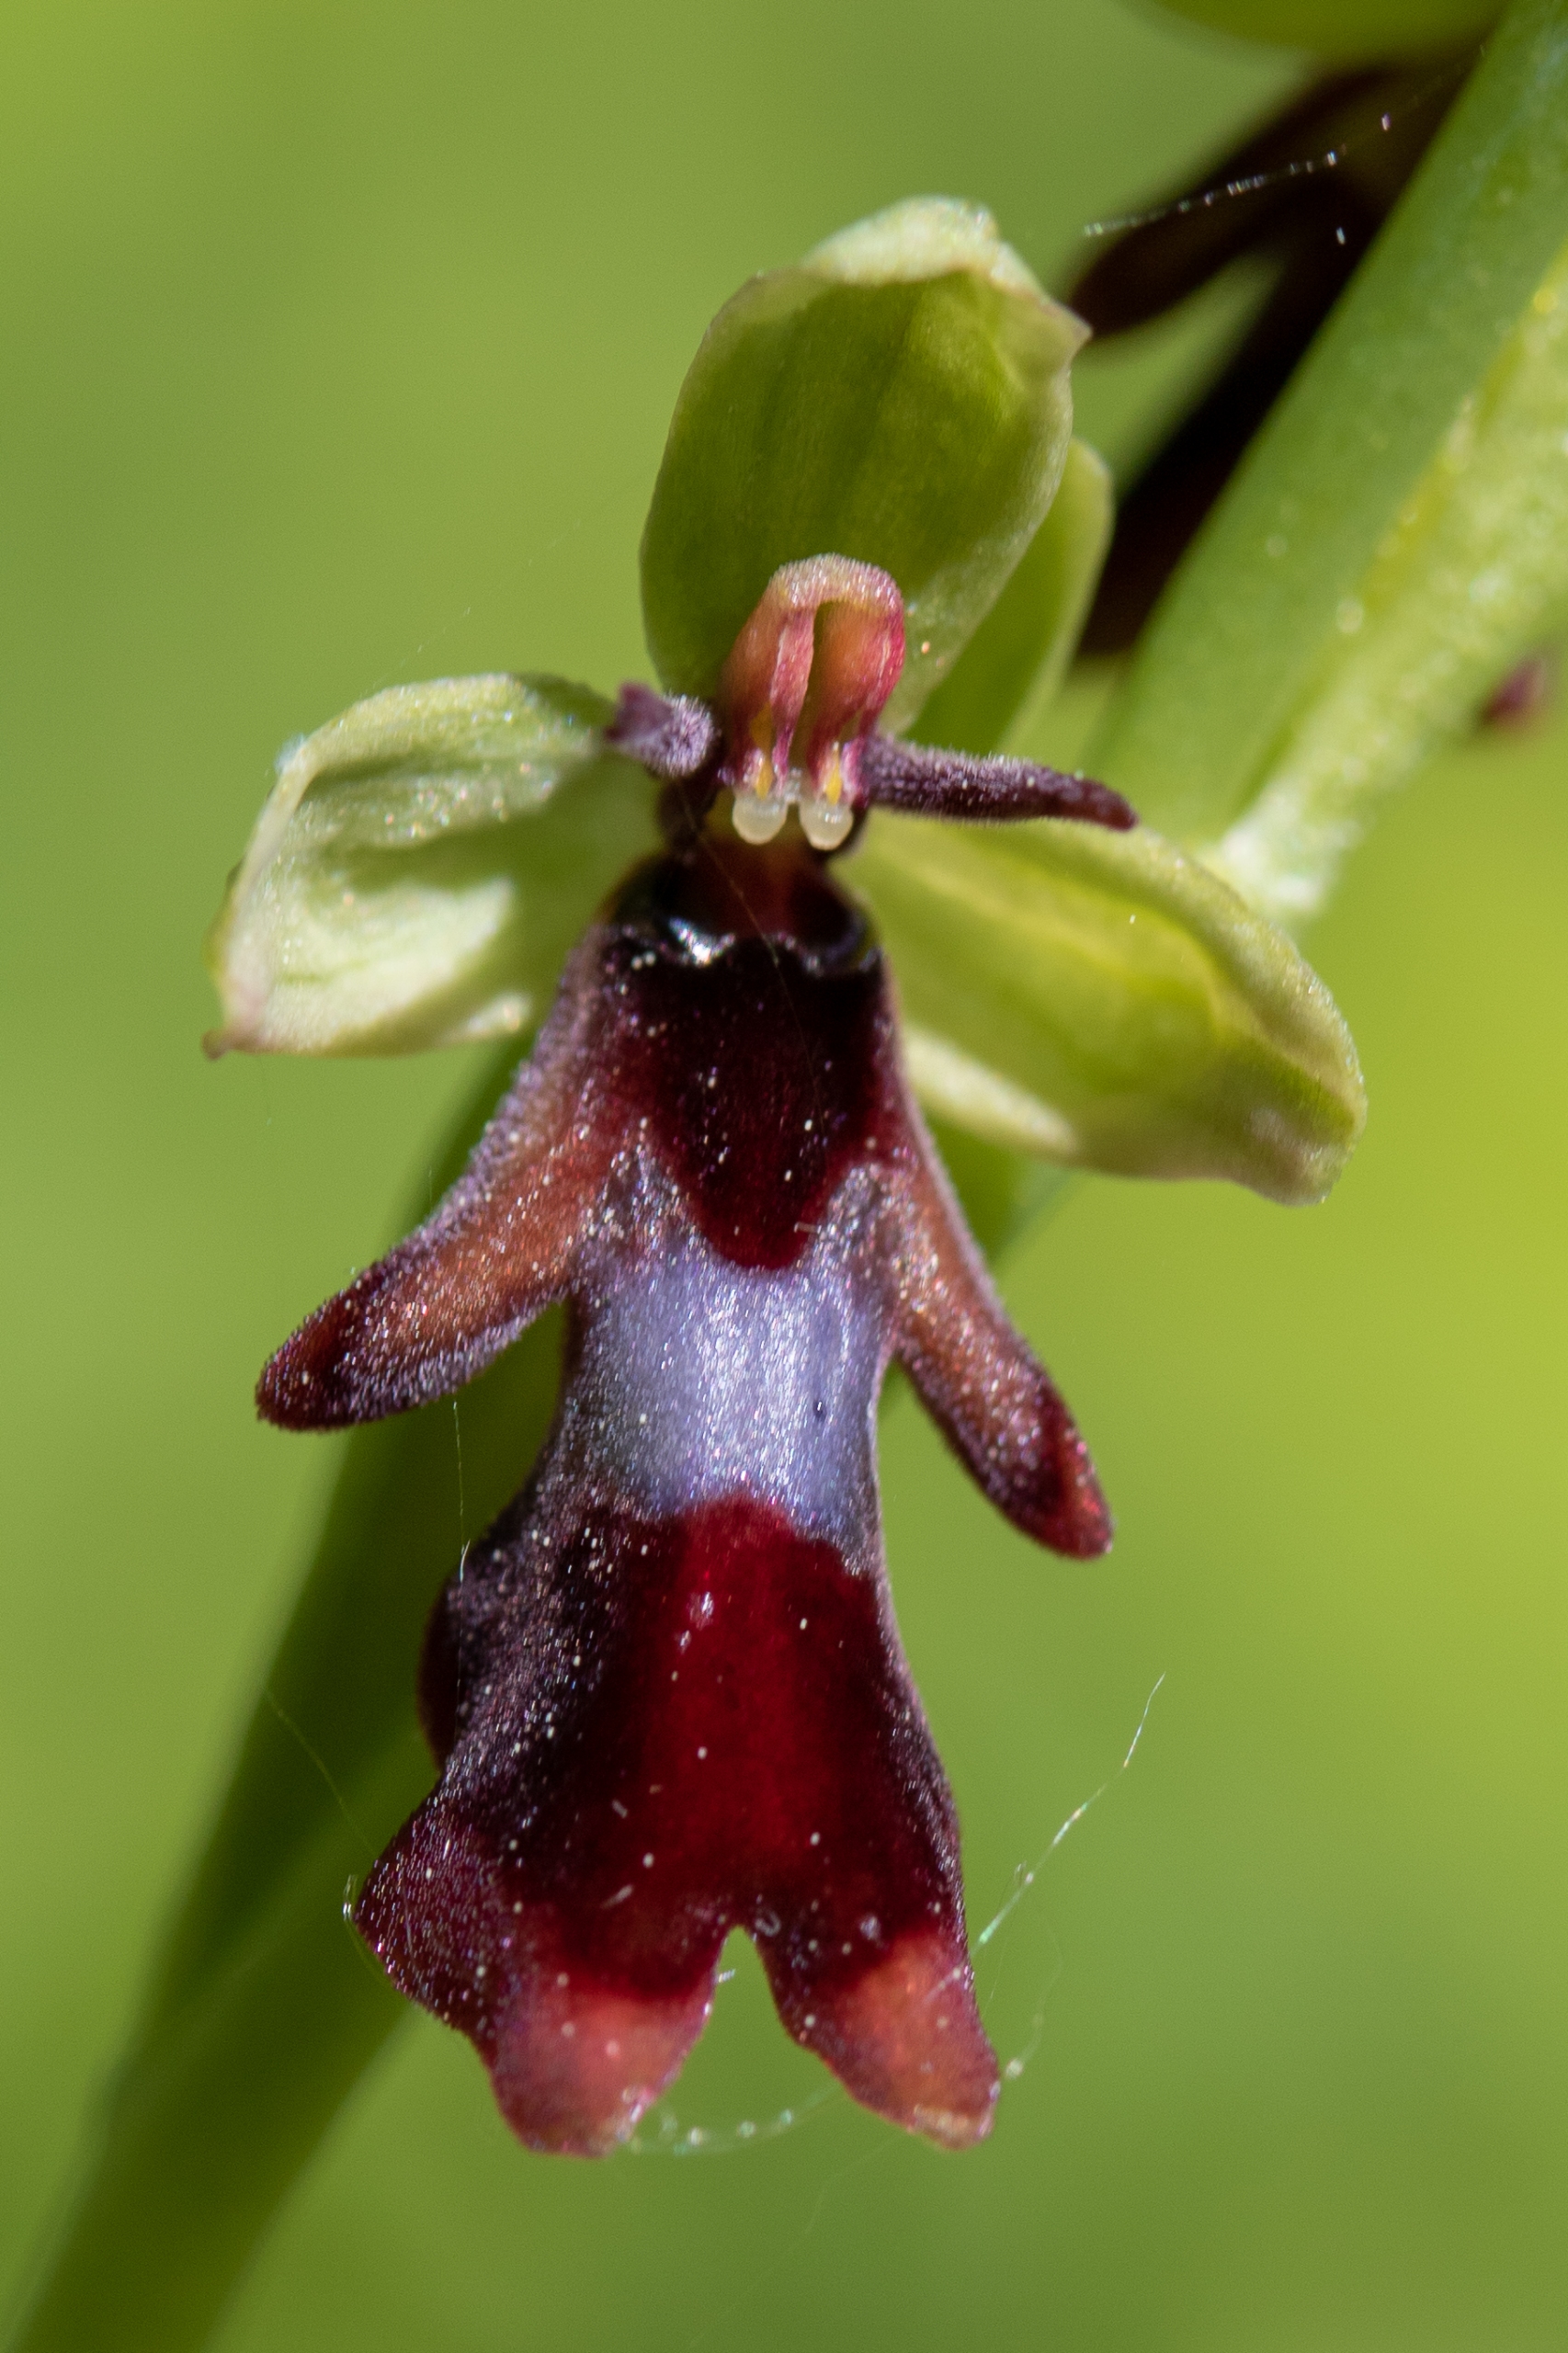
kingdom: Plantae
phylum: Tracheophyta
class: Liliopsida
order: Asparagales
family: Orchidaceae
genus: Ophrys
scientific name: Ophrys insectifera
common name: Flueblomst
